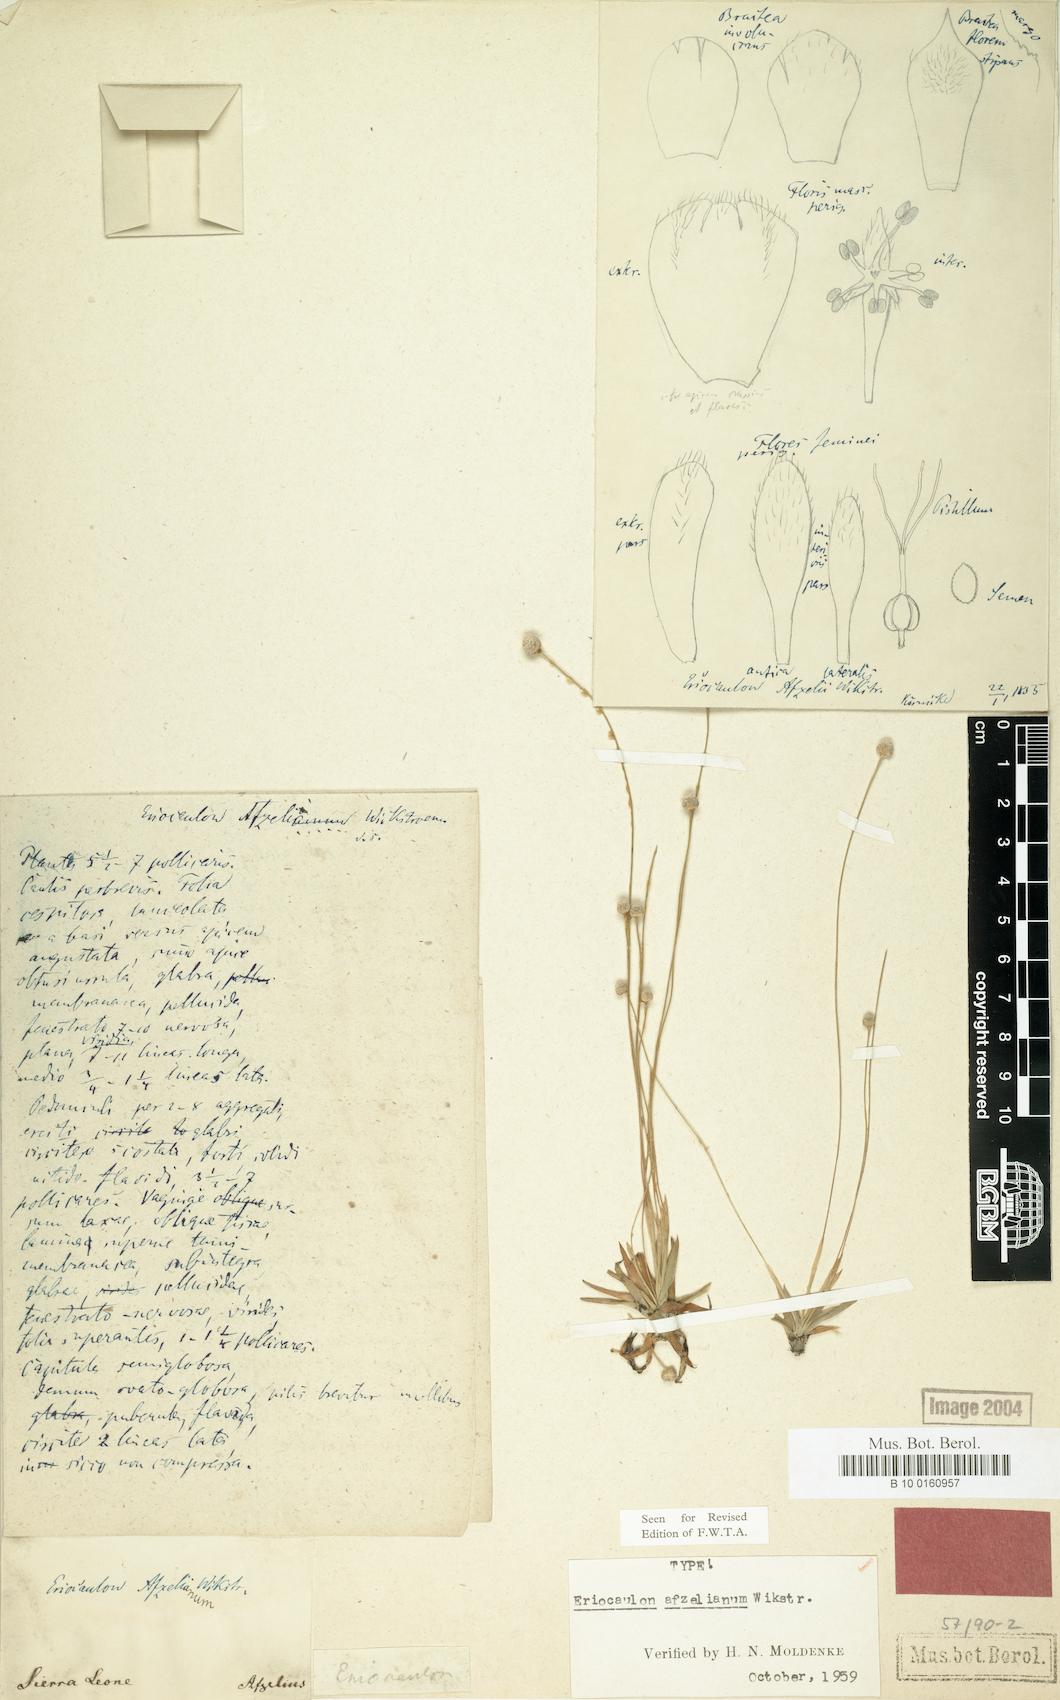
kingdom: Plantae
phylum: Tracheophyta
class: Liliopsida
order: Poales
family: Eriocaulaceae
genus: Eriocaulon
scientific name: Eriocaulon afzelianum
